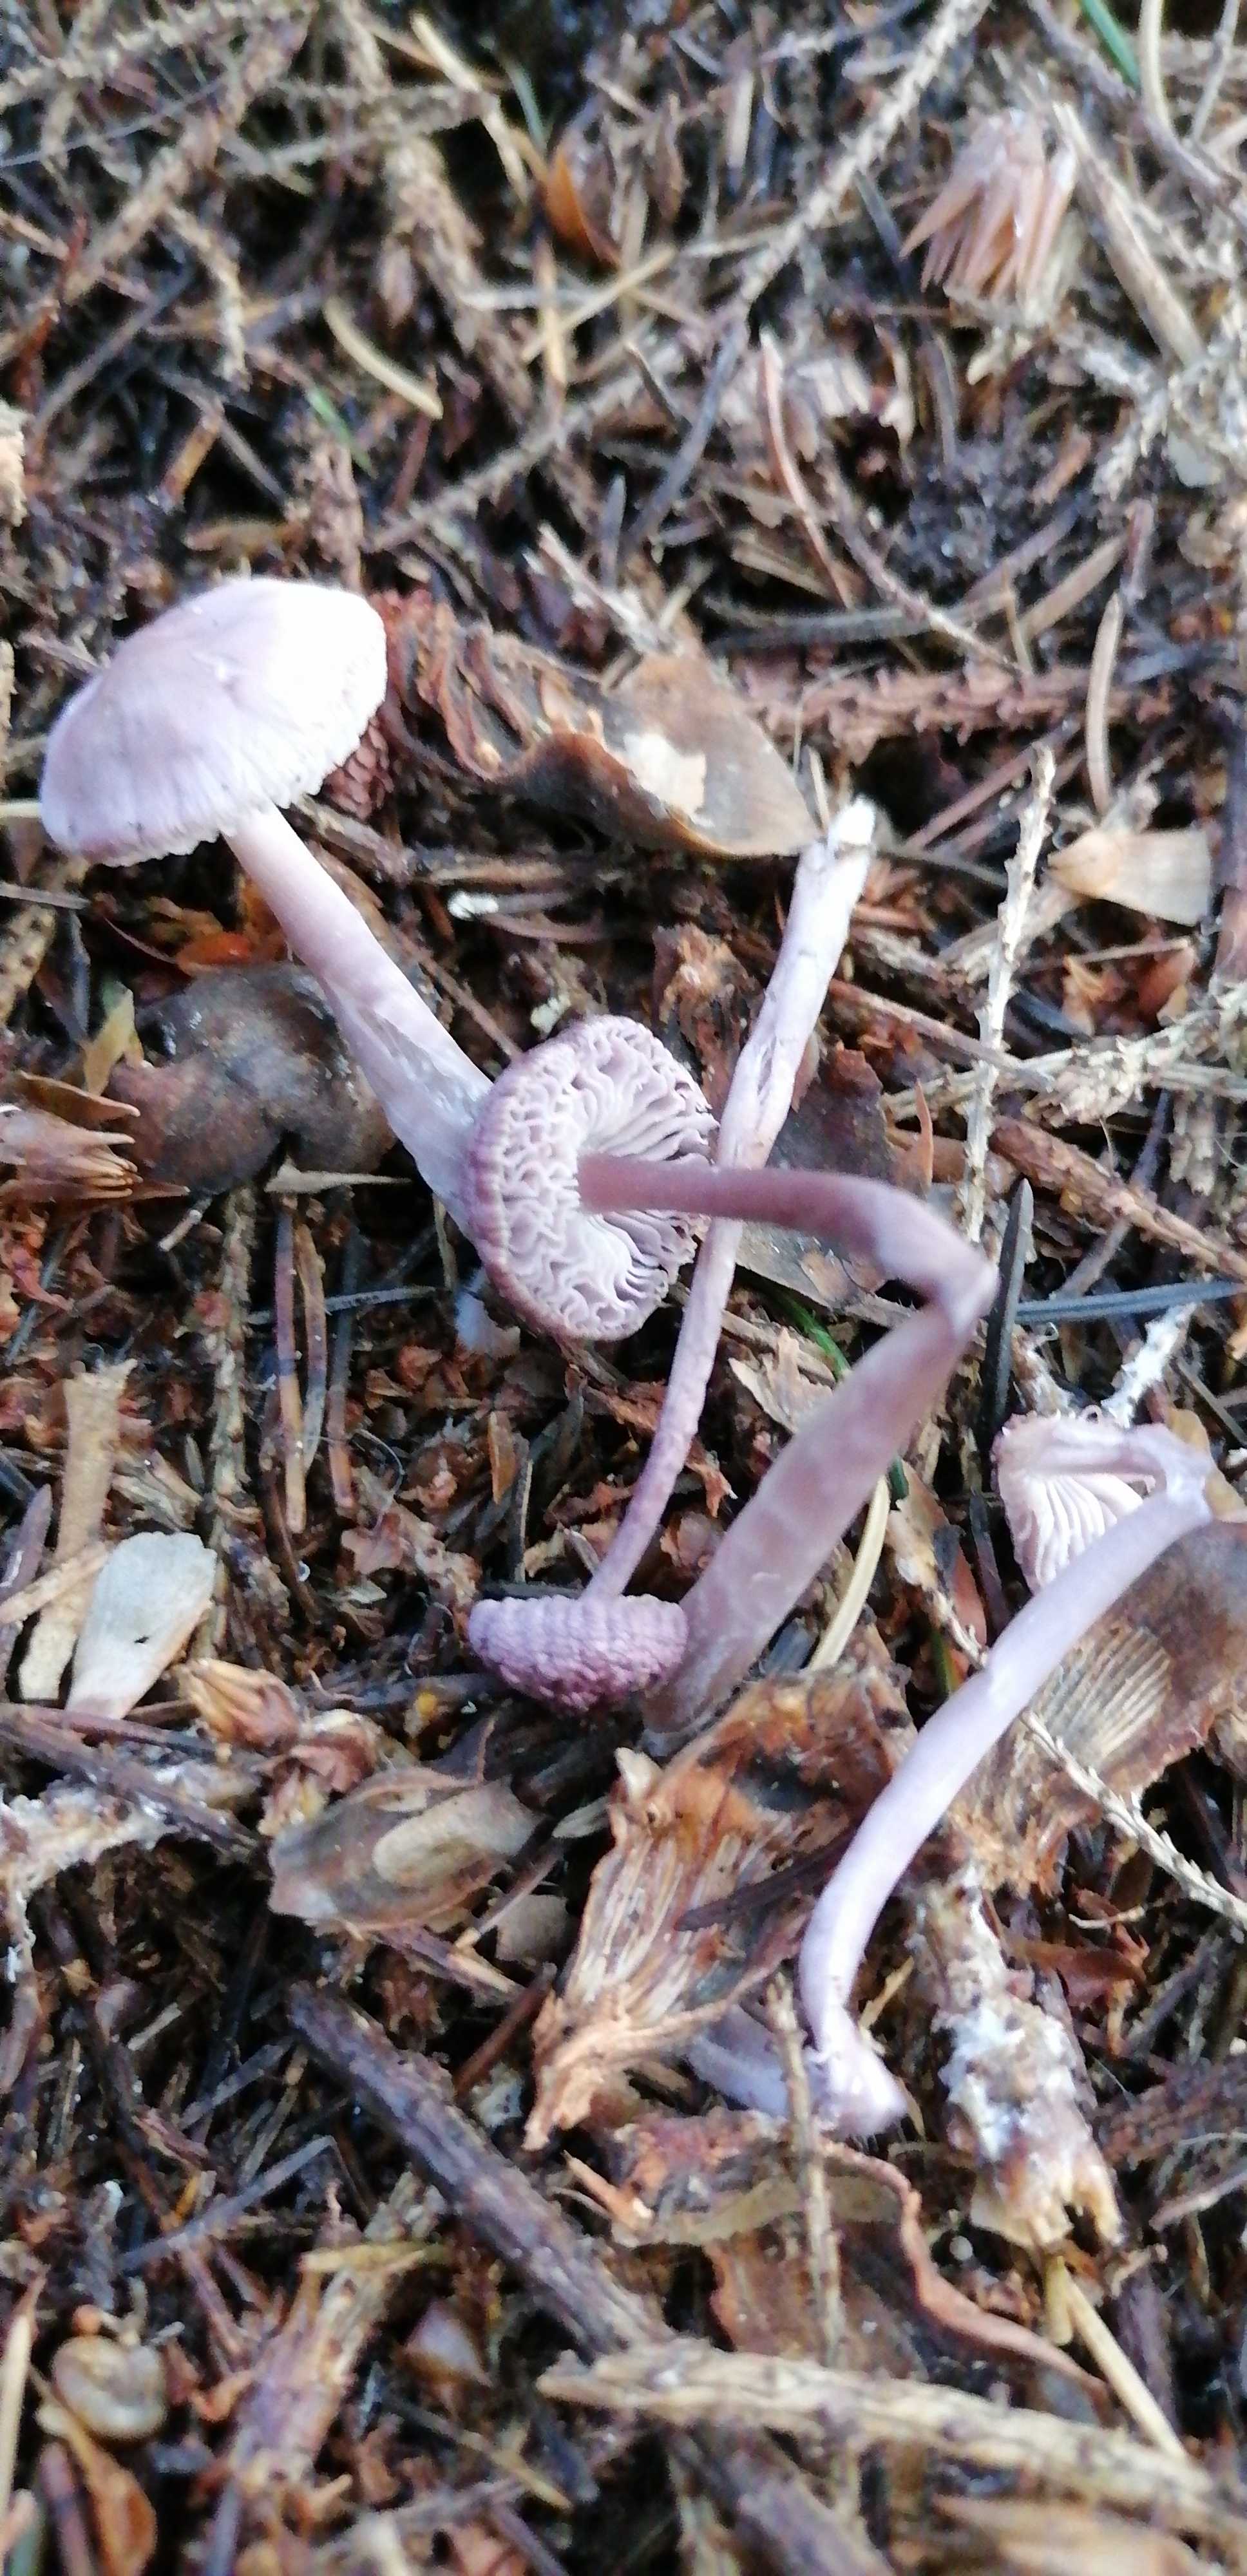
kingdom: Fungi
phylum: Basidiomycota
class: Agaricomycetes
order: Agaricales
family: Mycenaceae
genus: Mycena
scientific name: Mycena rosea
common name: rosa huesvamp
